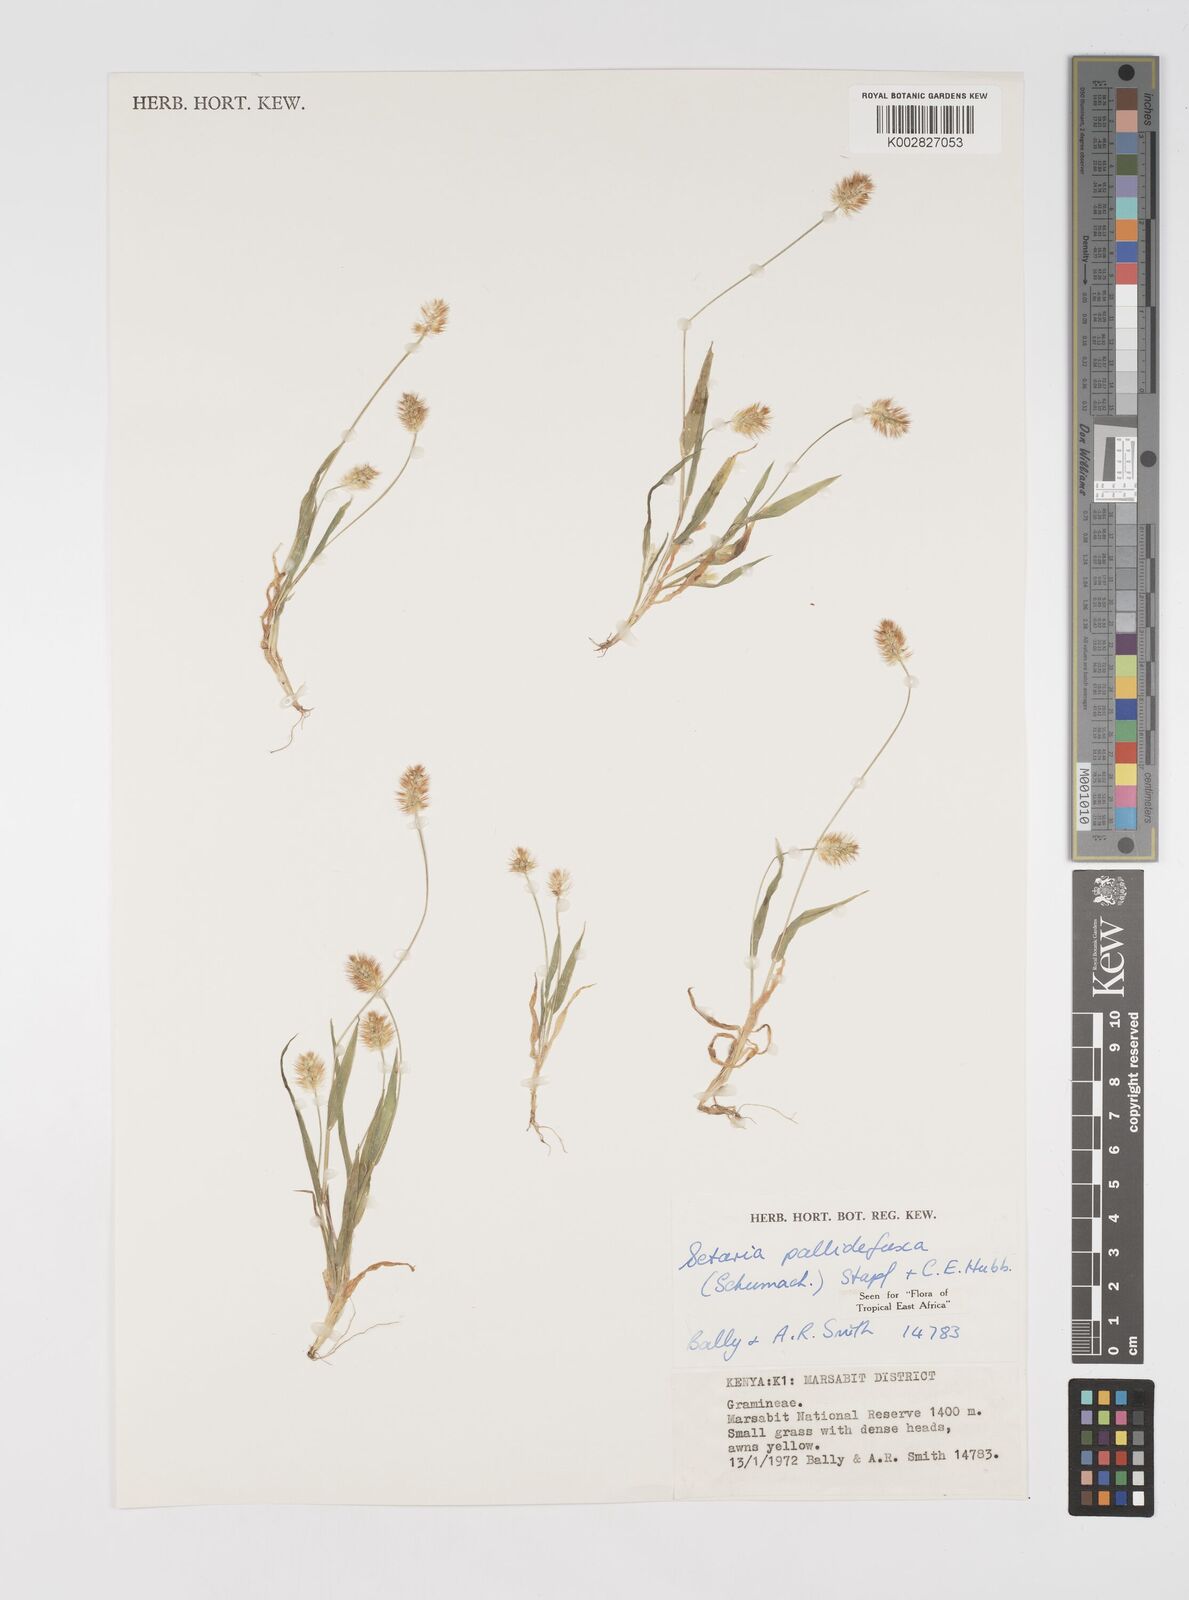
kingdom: Plantae
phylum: Tracheophyta
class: Liliopsida
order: Poales
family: Poaceae
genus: Setaria
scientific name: Setaria pumila
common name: Yellow bristle-grass
